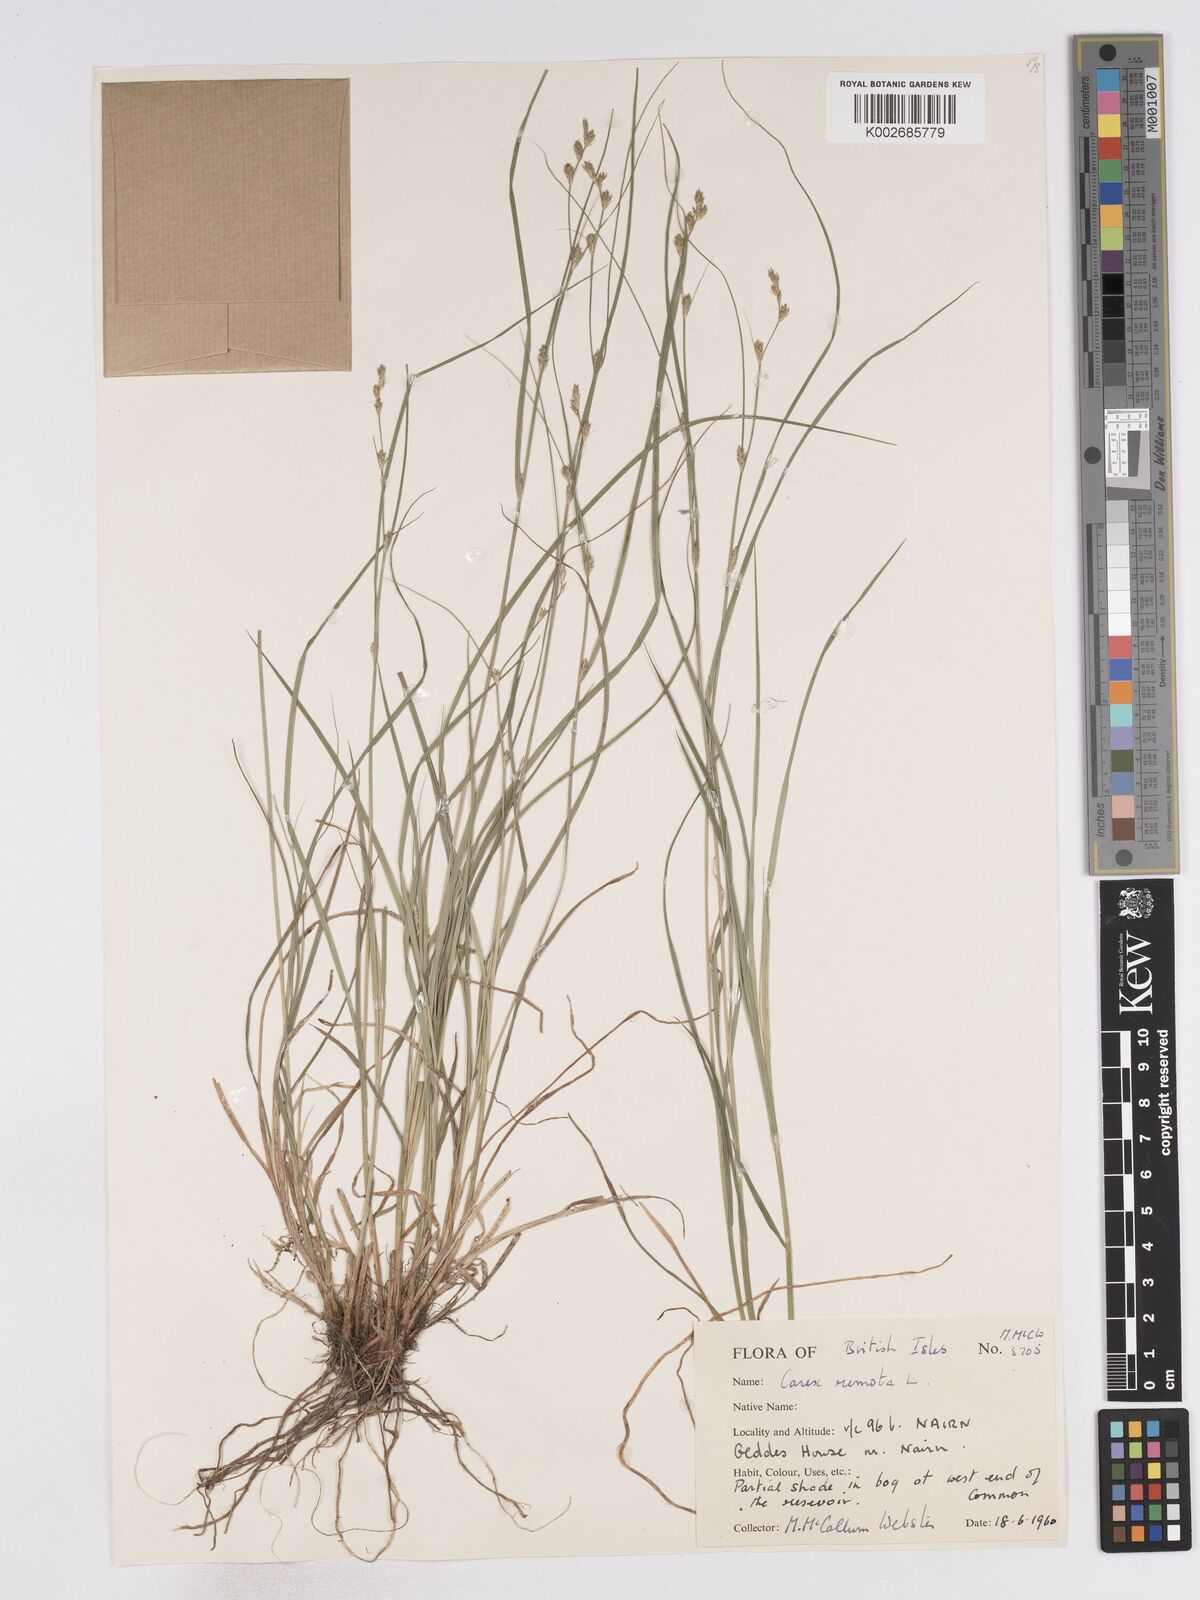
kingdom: Plantae
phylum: Tracheophyta
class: Liliopsida
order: Poales
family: Cyperaceae
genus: Carex
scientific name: Carex remota
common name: Remote sedge
